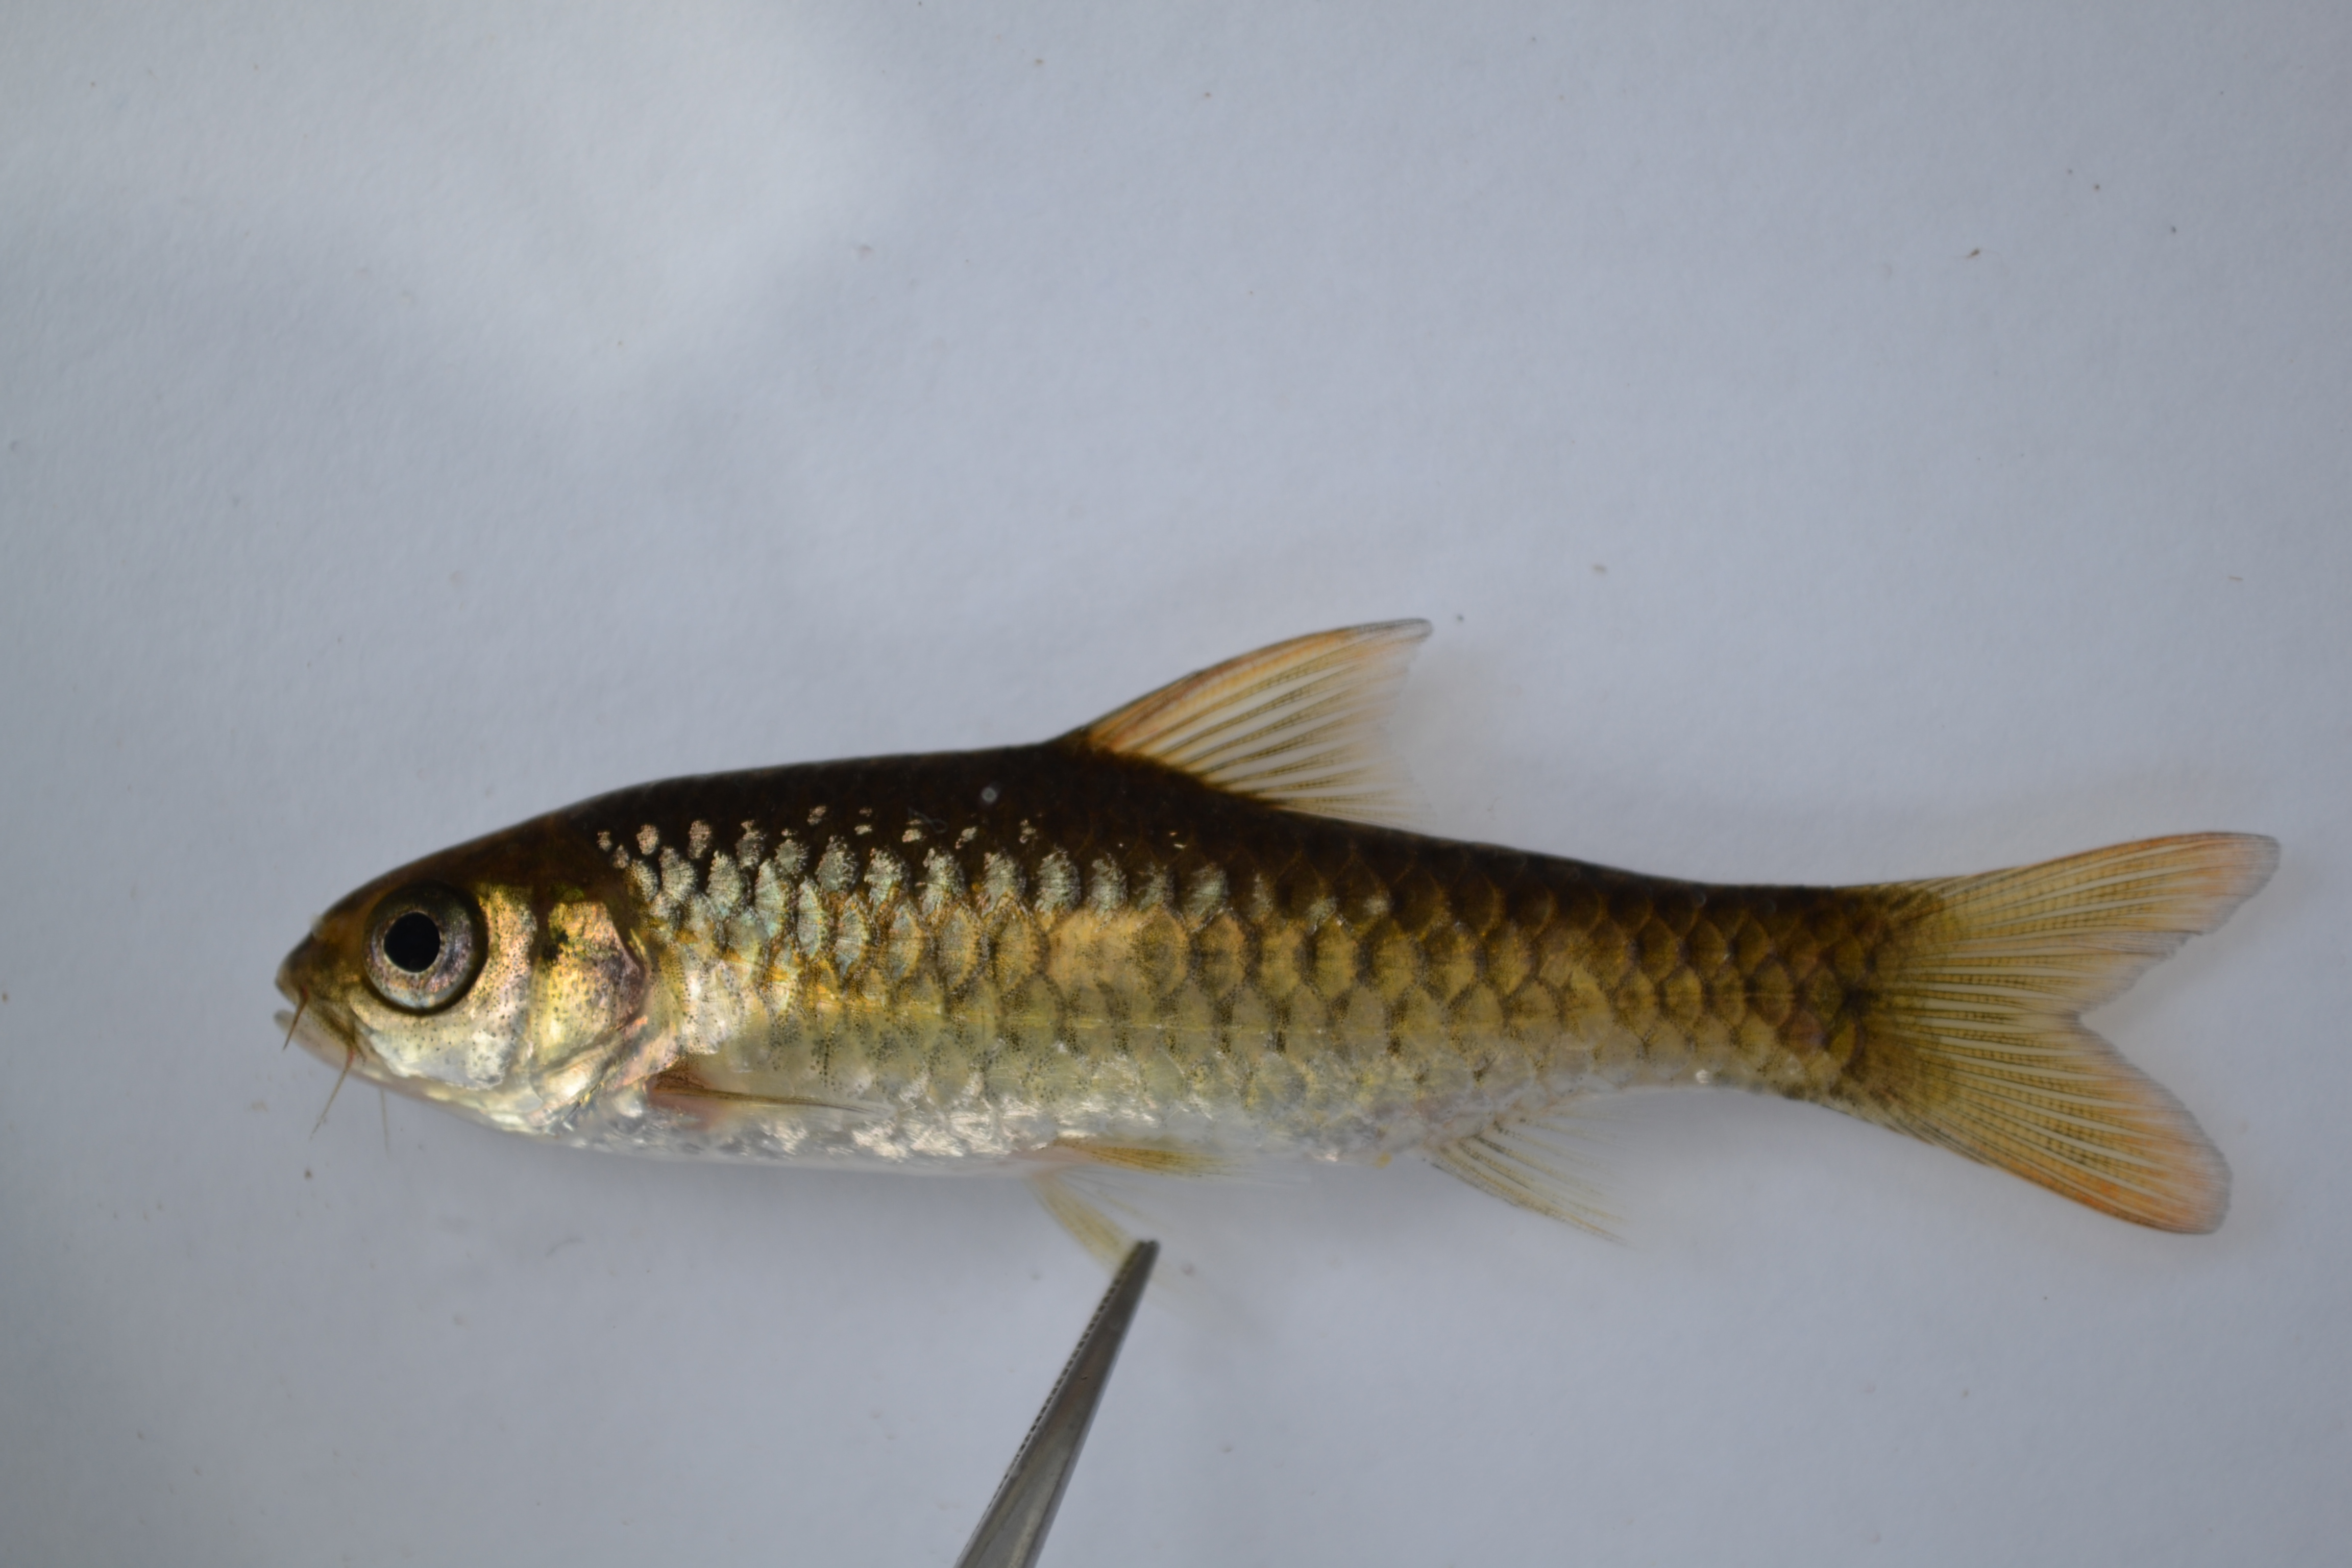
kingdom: Animalia
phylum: Chordata
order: Cypriniformes
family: Cyprinidae
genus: Enteromius
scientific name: Enteromius manicensis
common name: Yellow barb
